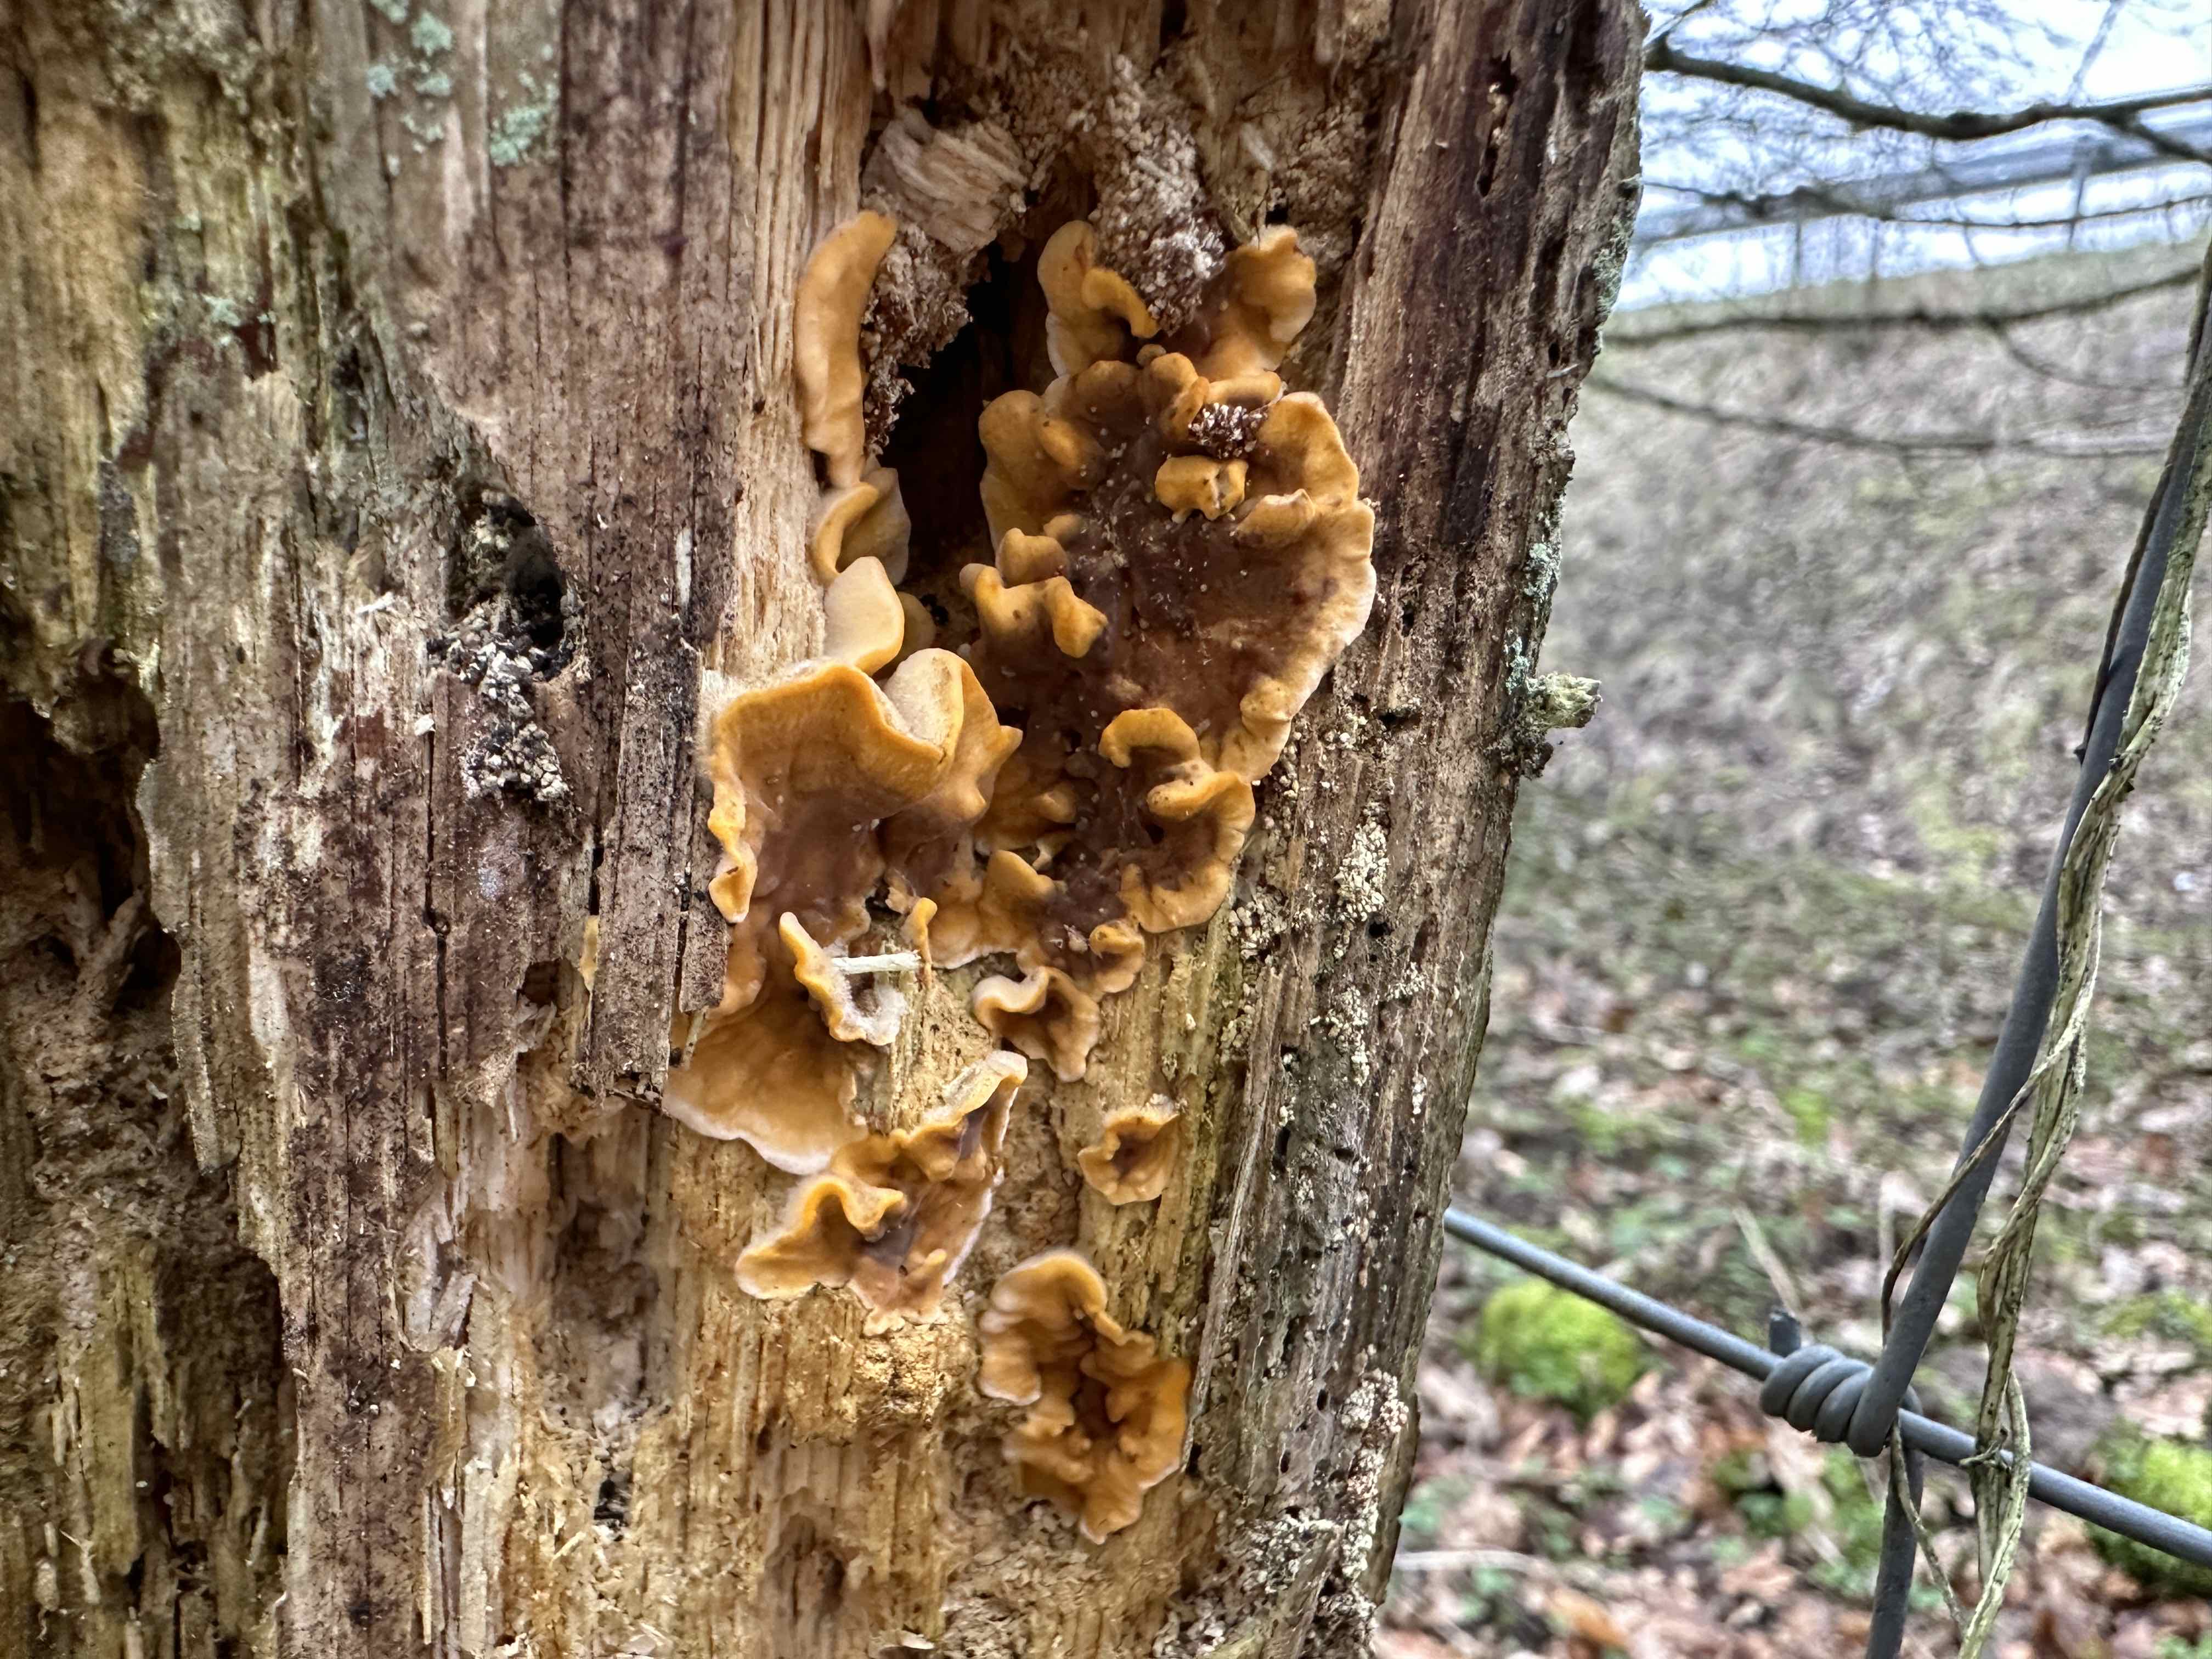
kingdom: Fungi
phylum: Basidiomycota
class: Agaricomycetes
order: Russulales
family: Stereaceae
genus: Stereum
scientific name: Stereum hirsutum
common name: håret lædersvamp
